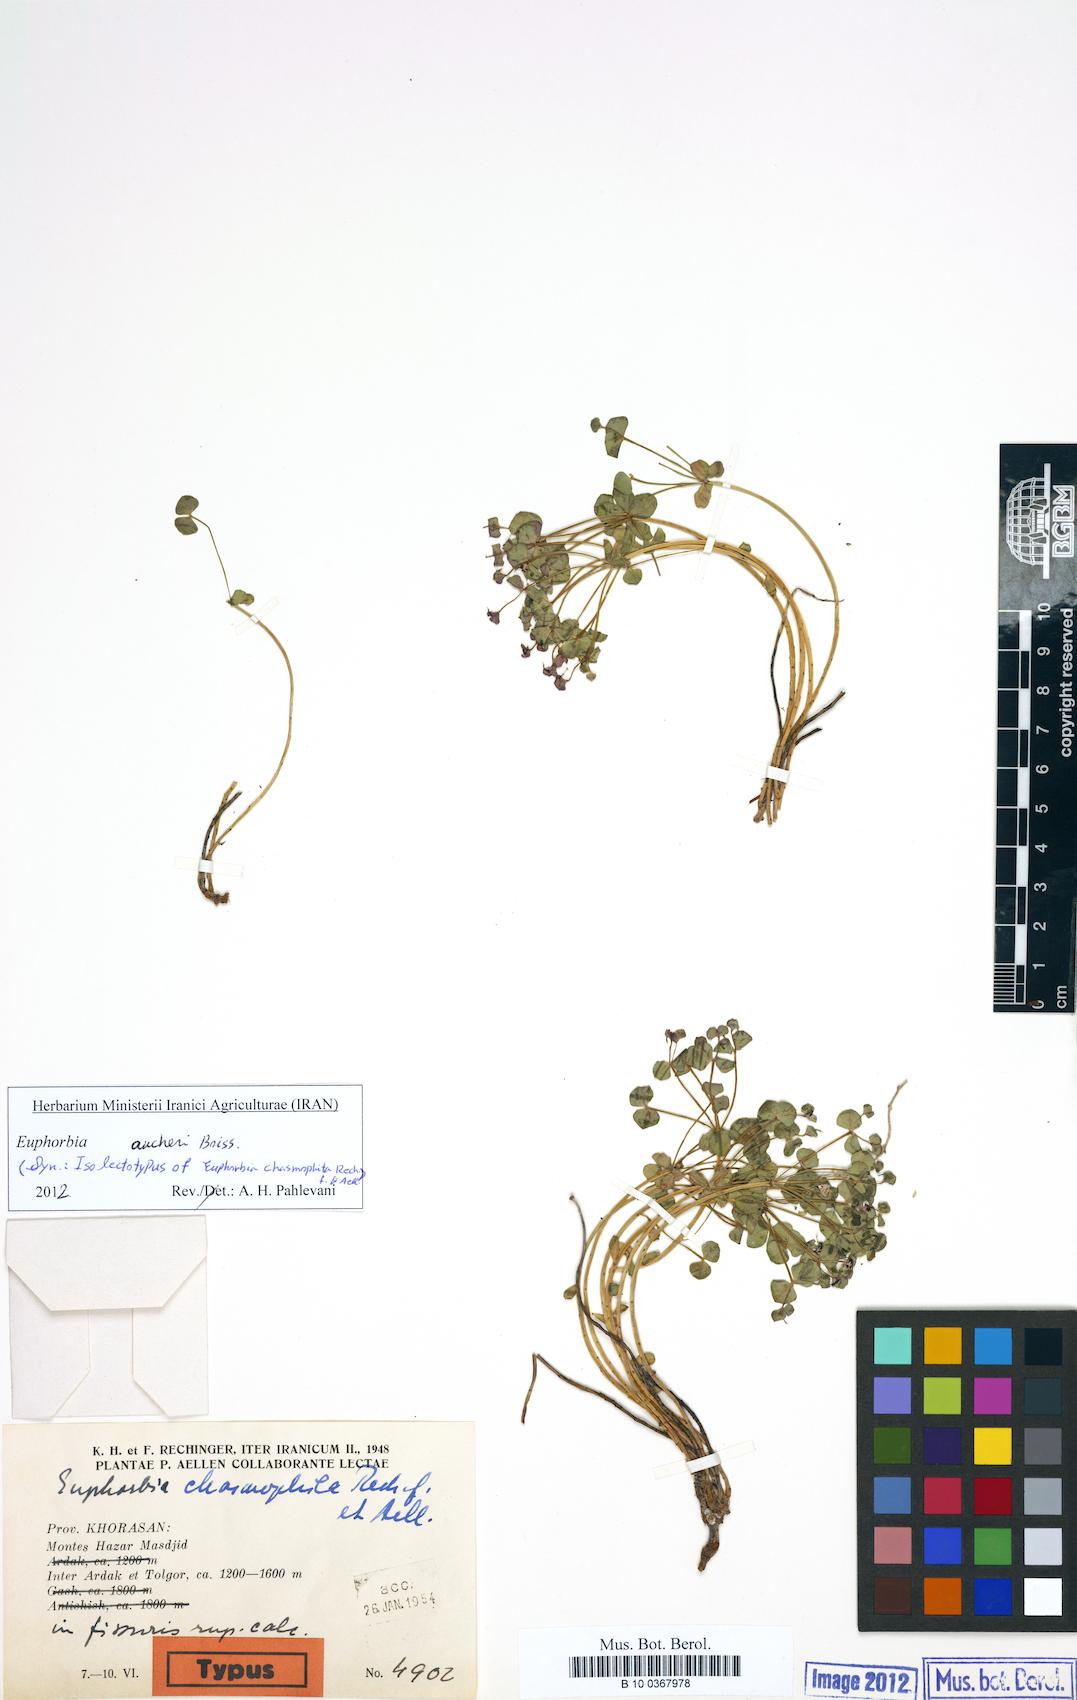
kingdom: Plantae
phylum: Tracheophyta
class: Magnoliopsida
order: Malpighiales
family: Euphorbiaceae
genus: Euphorbia
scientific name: Euphorbia aucheri
